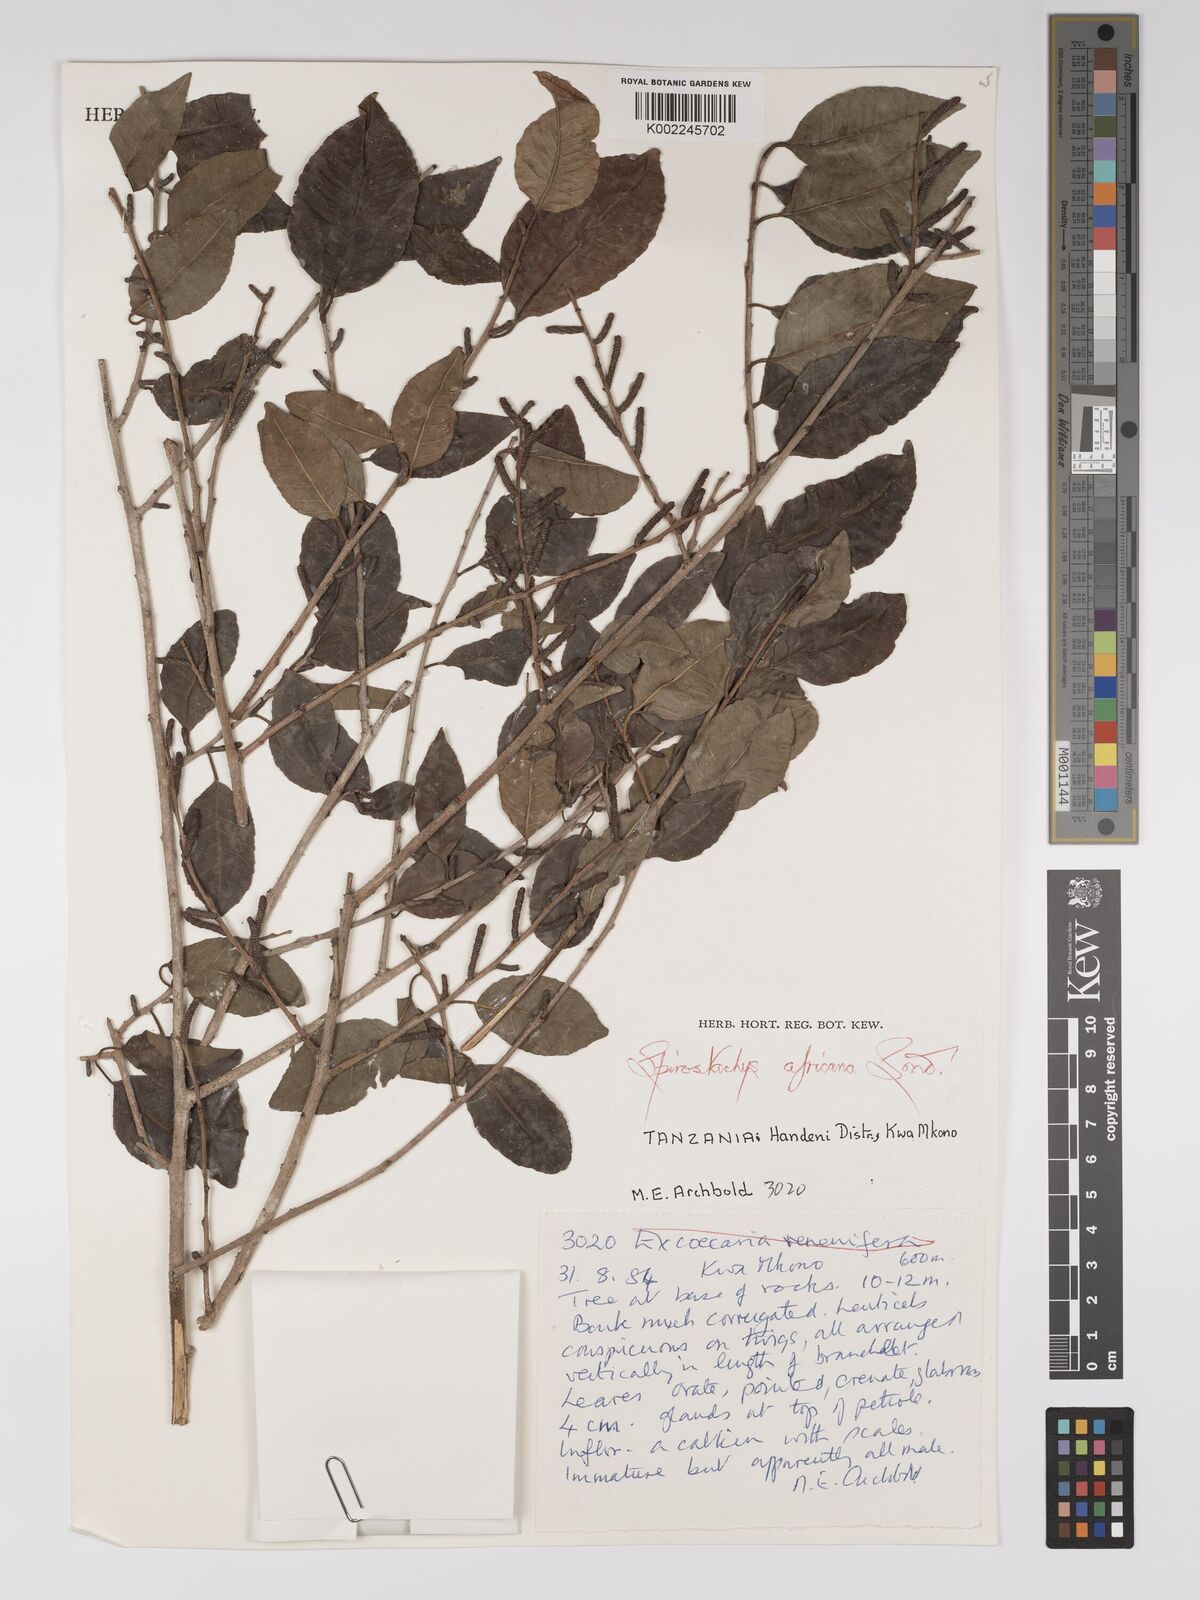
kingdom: Plantae
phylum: Tracheophyta
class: Magnoliopsida
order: Malpighiales
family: Euphorbiaceae
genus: Spirostachys
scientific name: Spirostachys africana
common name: Tamboti
